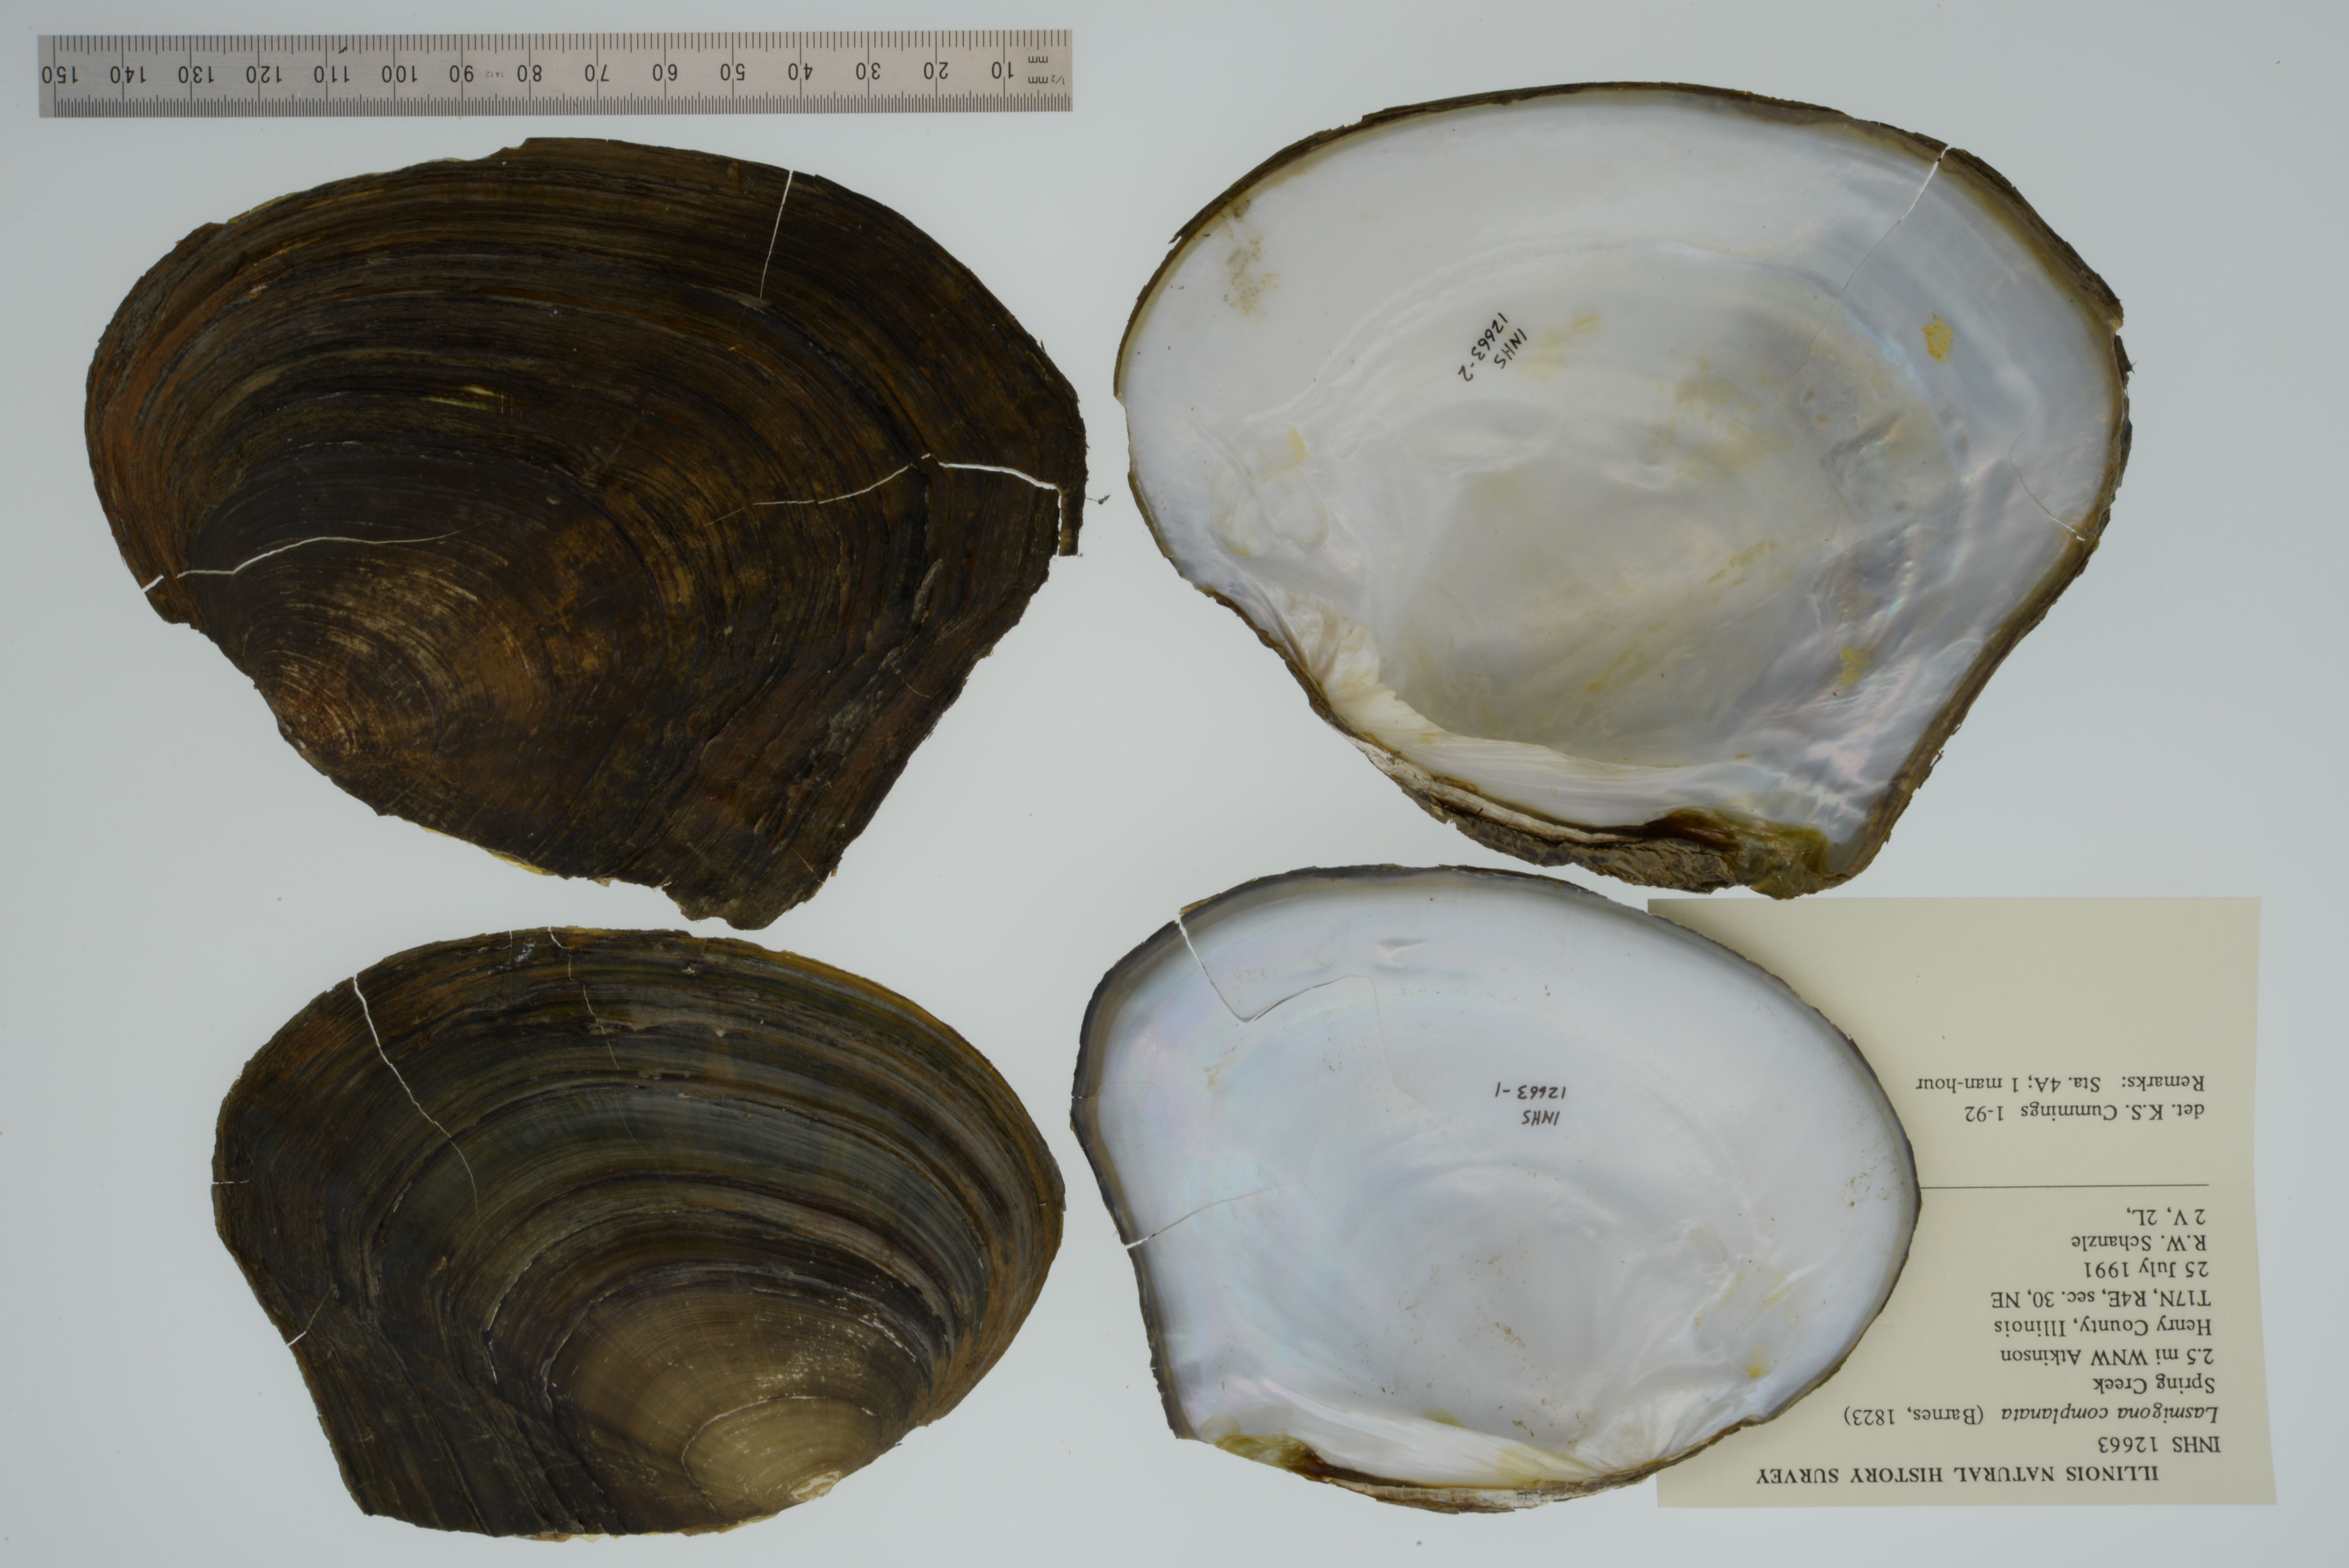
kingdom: Animalia
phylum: Mollusca
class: Bivalvia
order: Unionida
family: Unionidae
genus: Lasmigona
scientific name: Lasmigona complanata
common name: White heelsplitter
